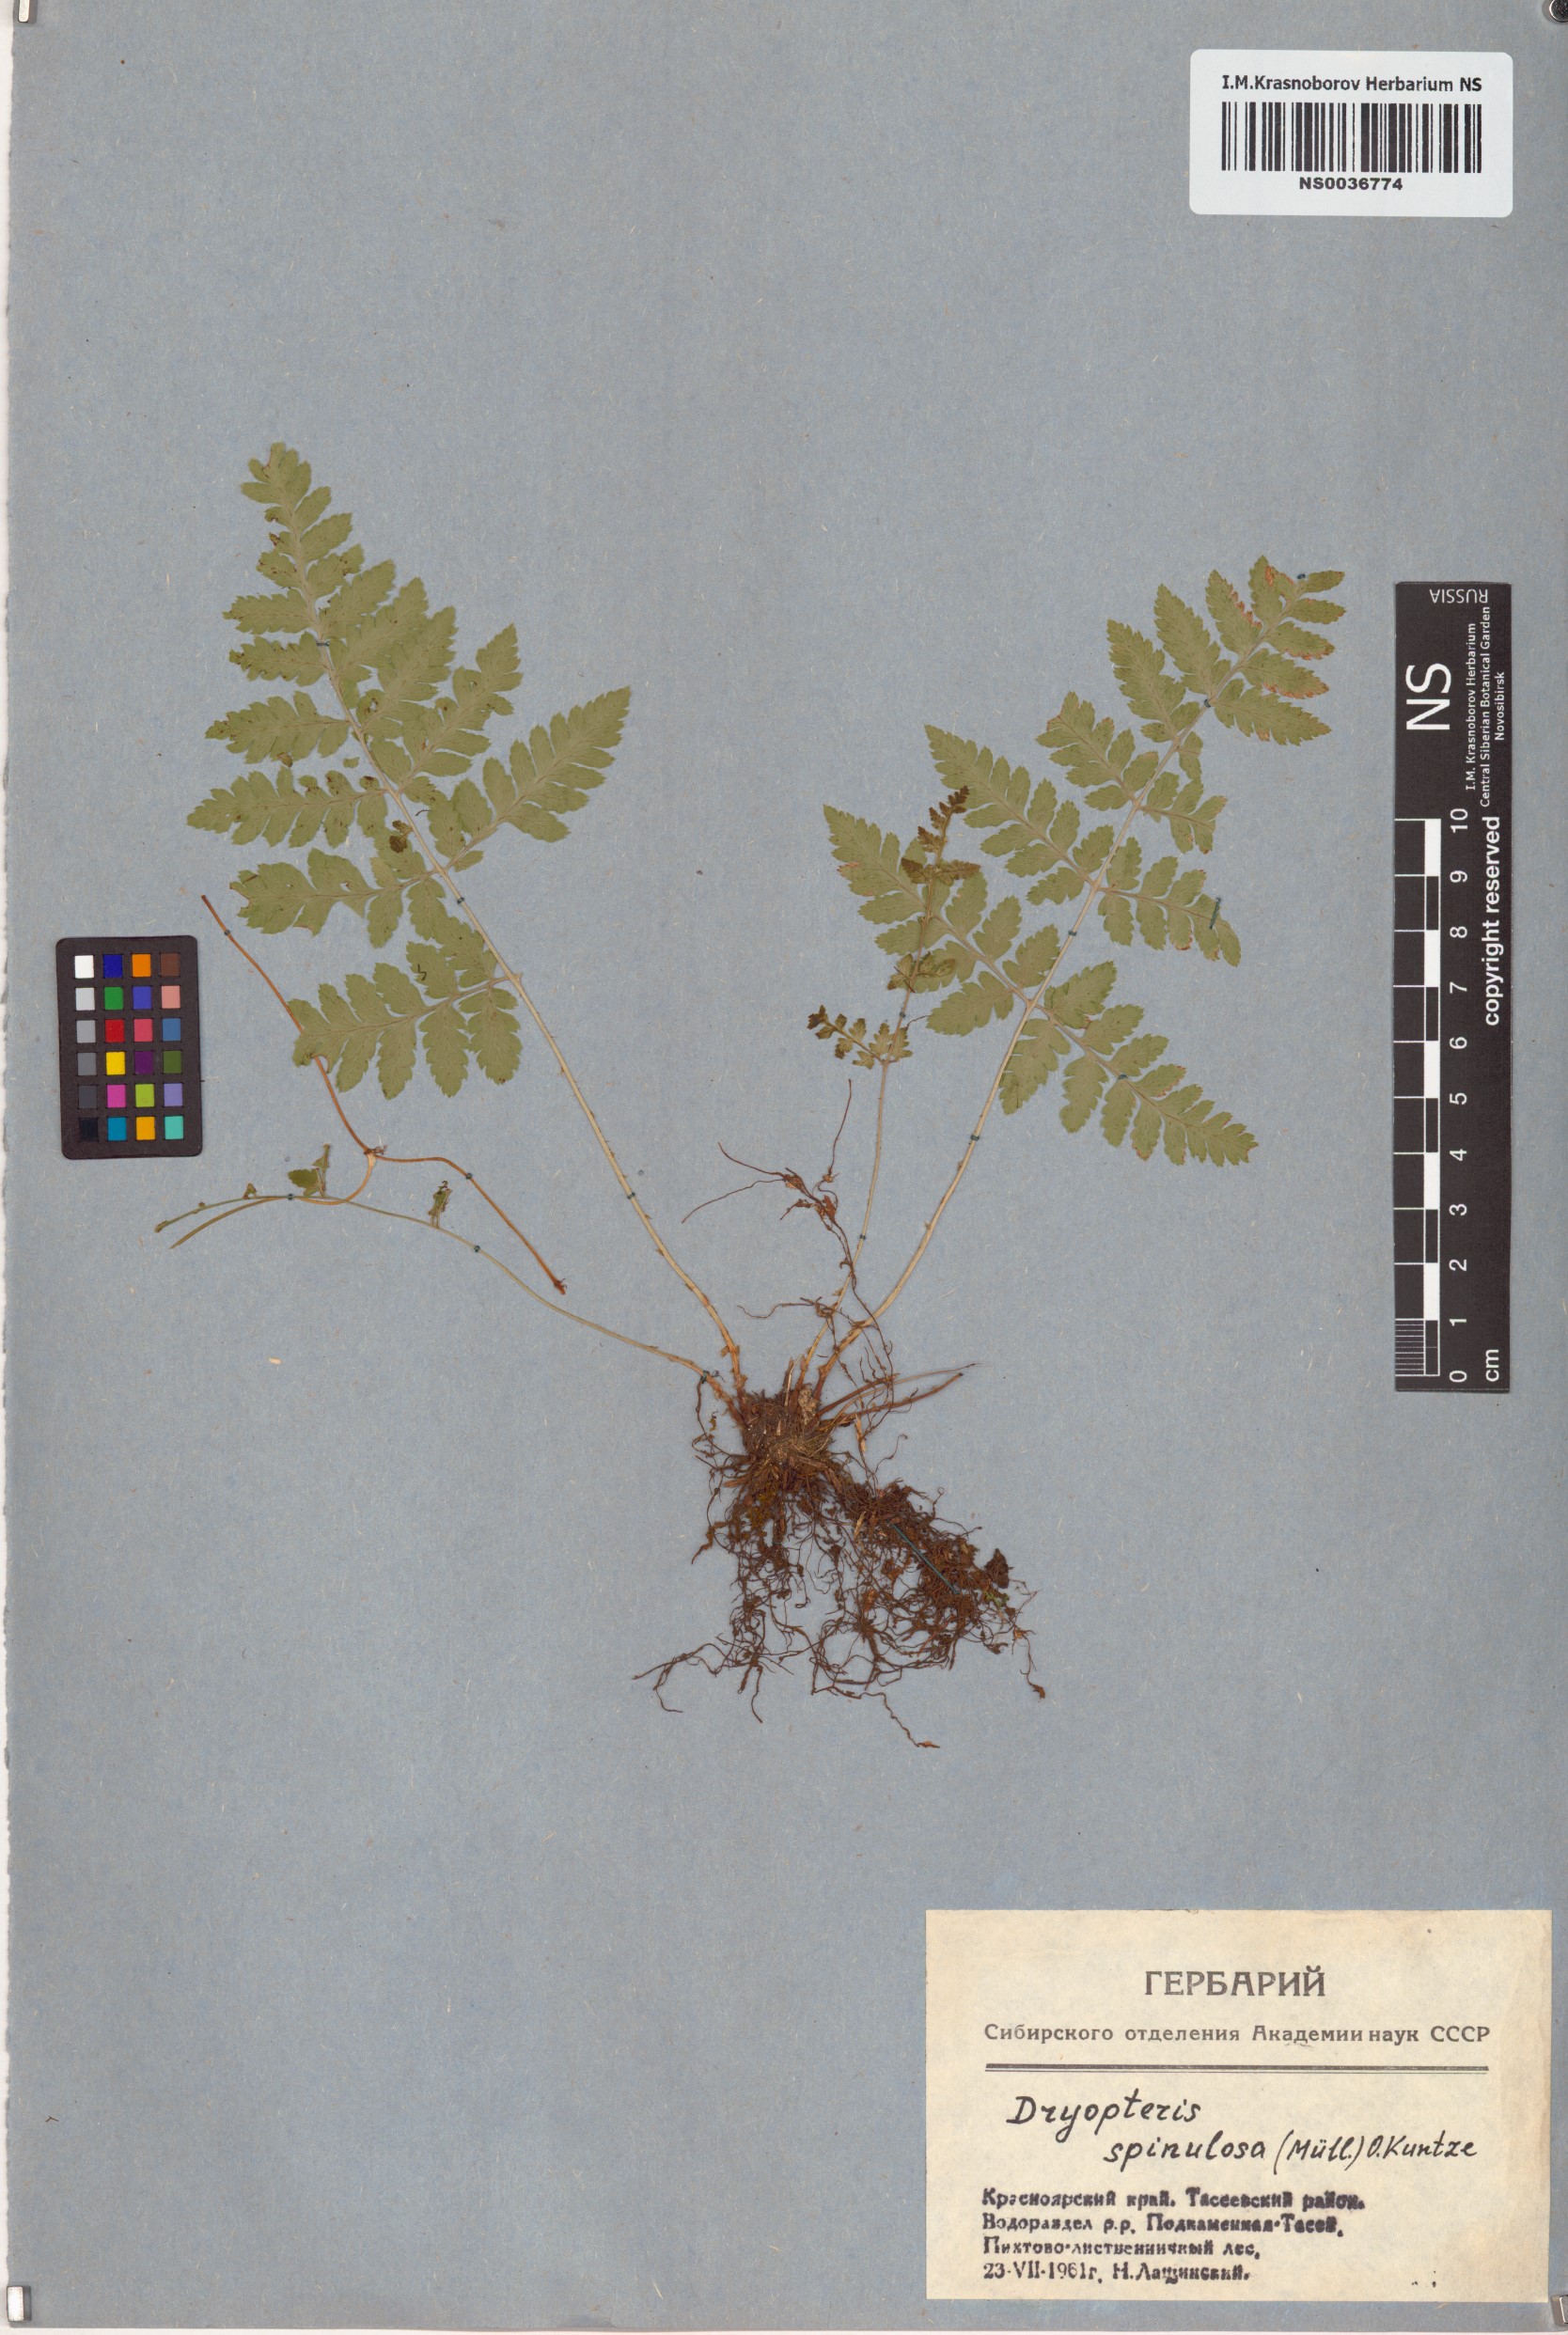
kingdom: Plantae
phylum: Tracheophyta
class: Polypodiopsida
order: Polypodiales
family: Dryopteridaceae
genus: Dryopteris
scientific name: Dryopteris carthusiana
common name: Narrow buckler-fern
